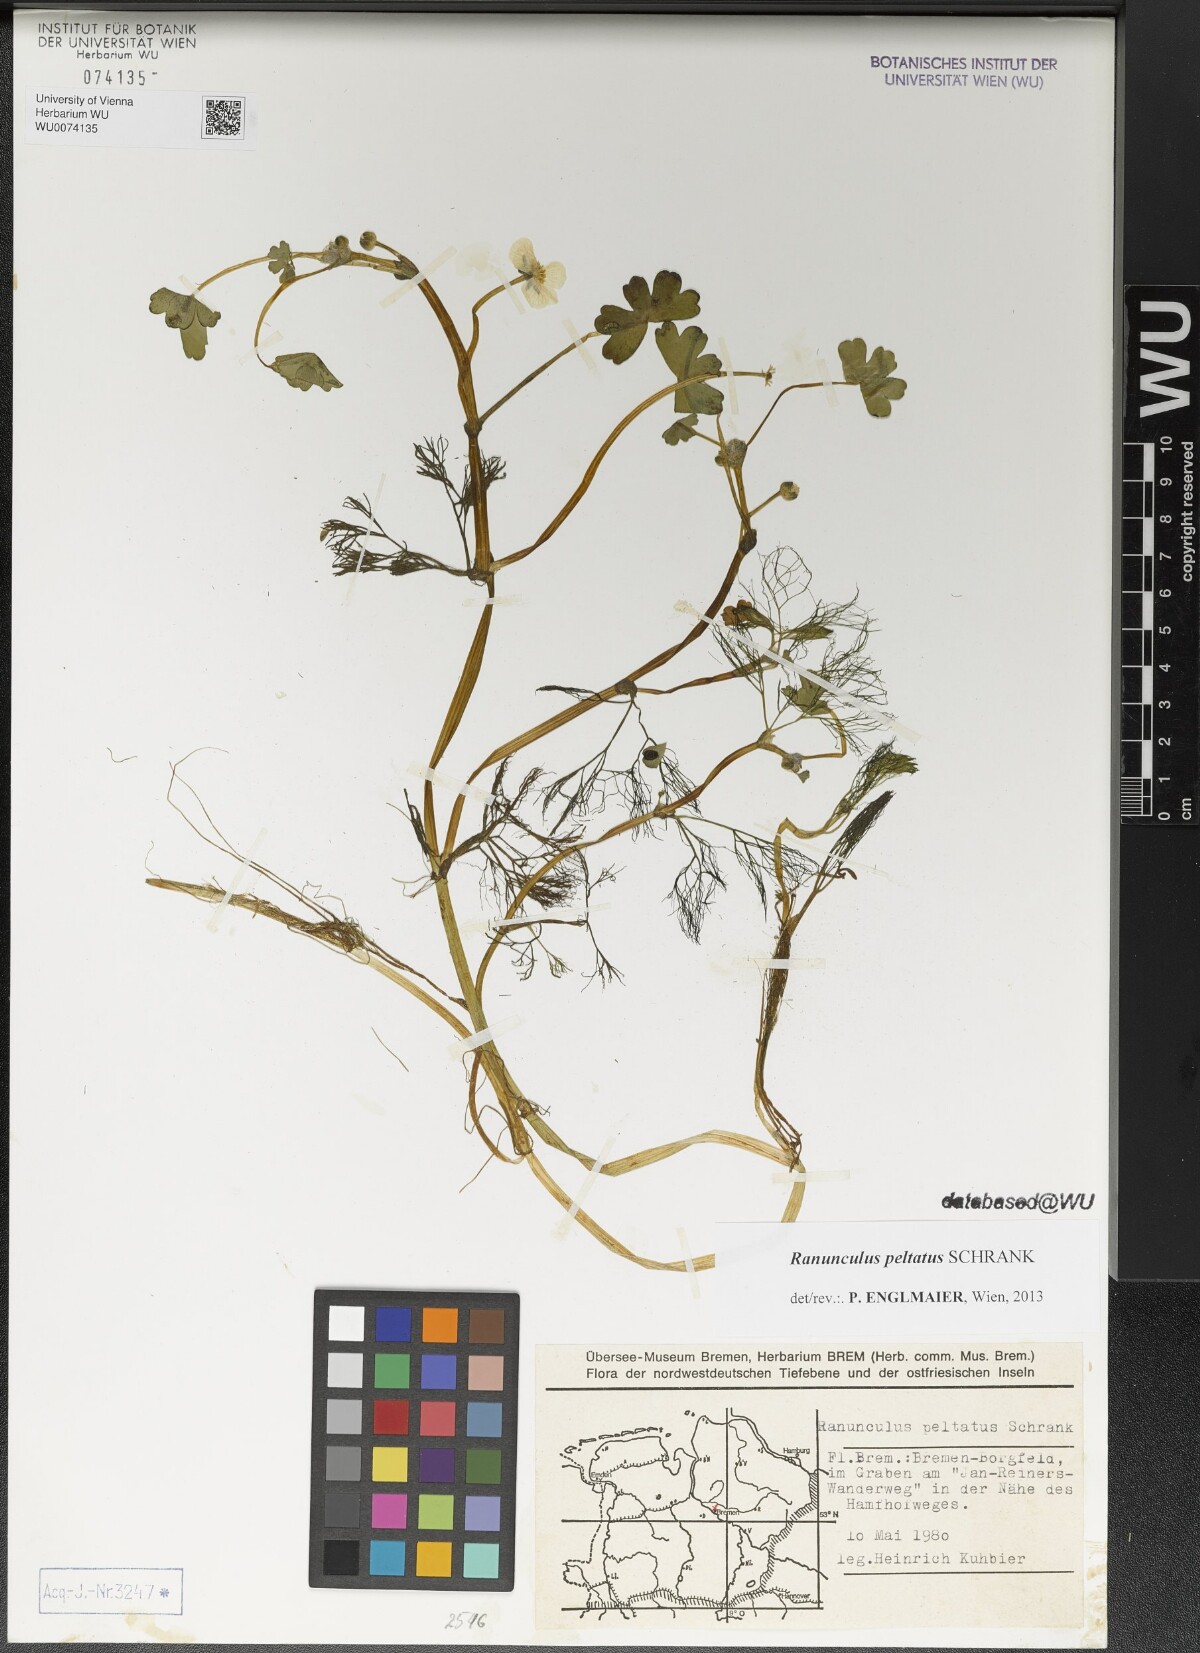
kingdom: Plantae
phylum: Tracheophyta
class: Magnoliopsida
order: Ranunculales
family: Ranunculaceae
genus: Ranunculus
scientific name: Ranunculus peltatus
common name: Pond water-crowfoot
